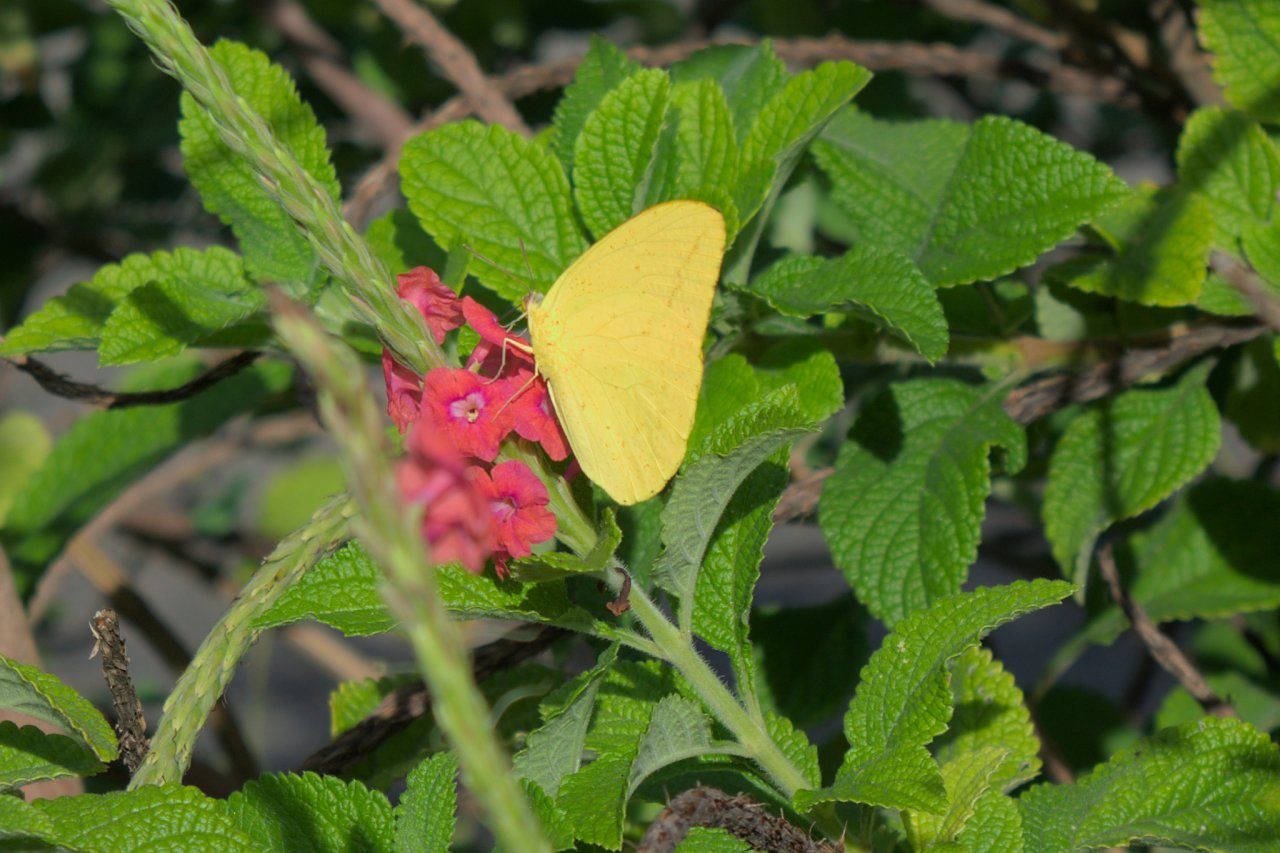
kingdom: Animalia
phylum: Arthropoda
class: Insecta
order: Lepidoptera
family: Pieridae
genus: Phoebis
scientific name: Phoebis
